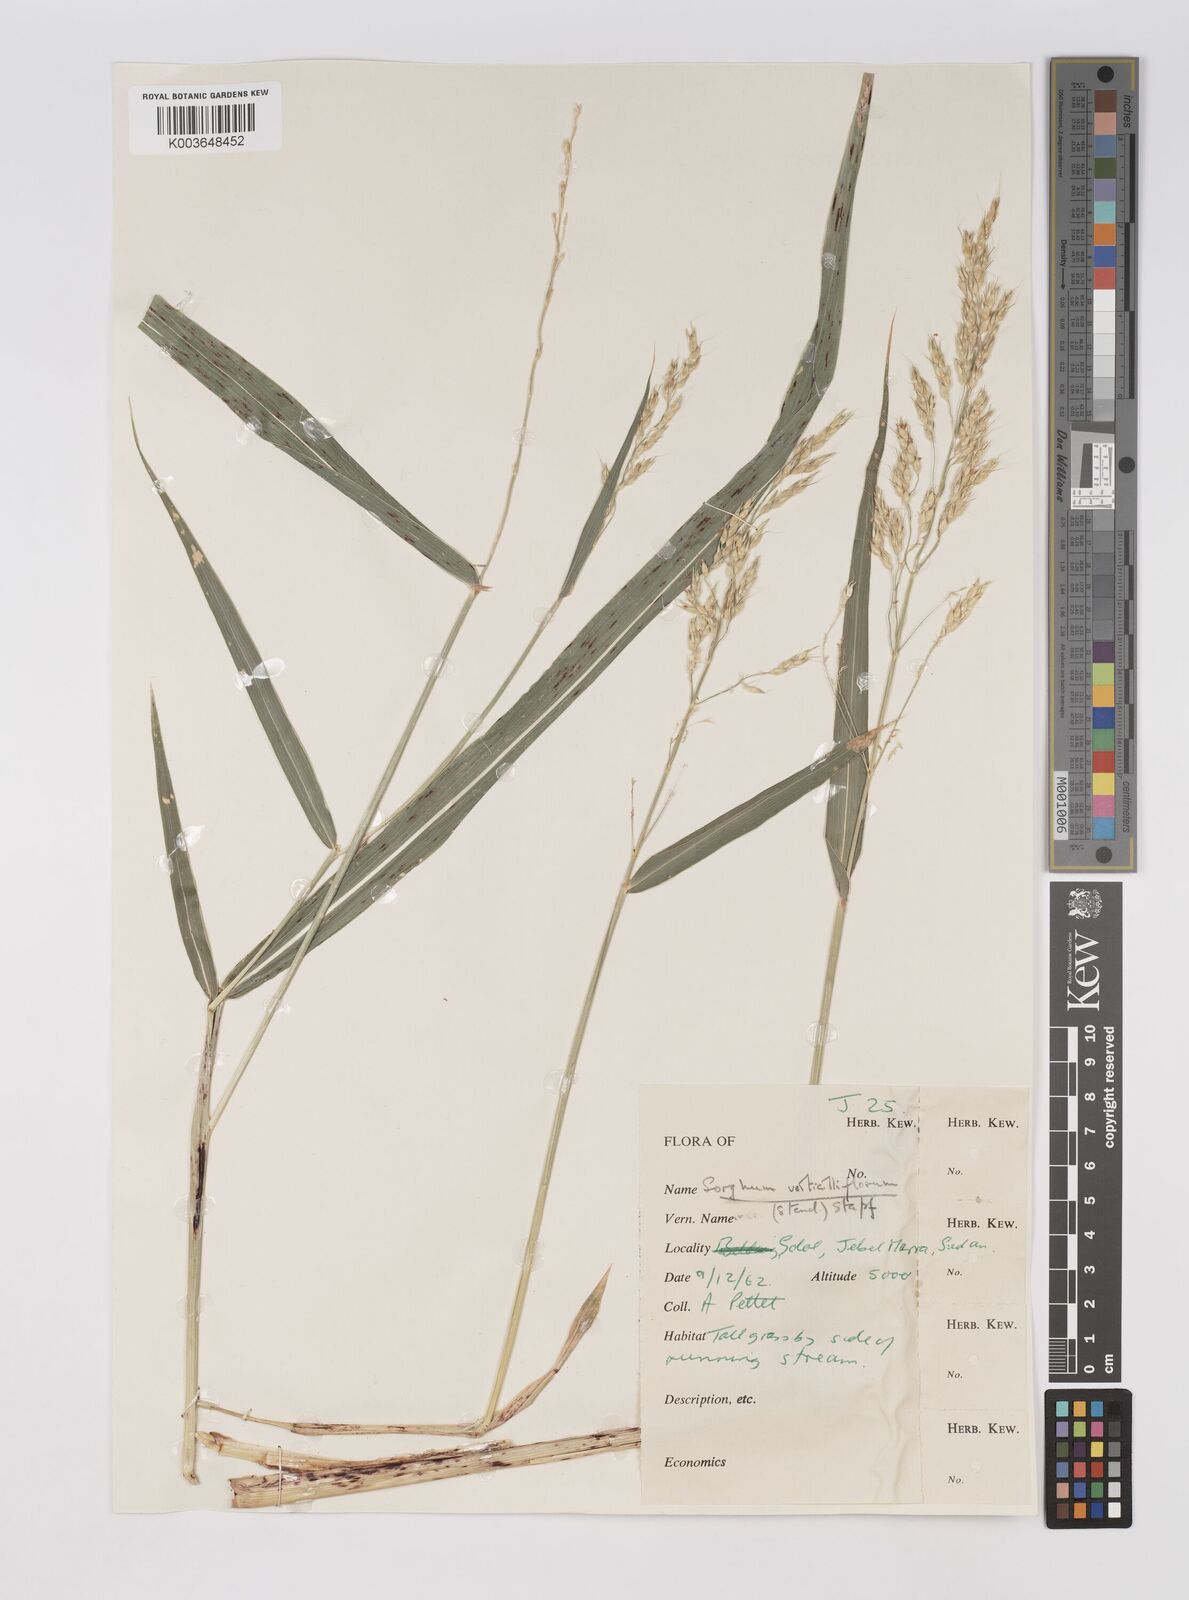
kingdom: Plantae
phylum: Tracheophyta
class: Liliopsida
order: Poales
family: Poaceae
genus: Sorghum
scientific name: Sorghum arundinaceum
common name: Sorghum
